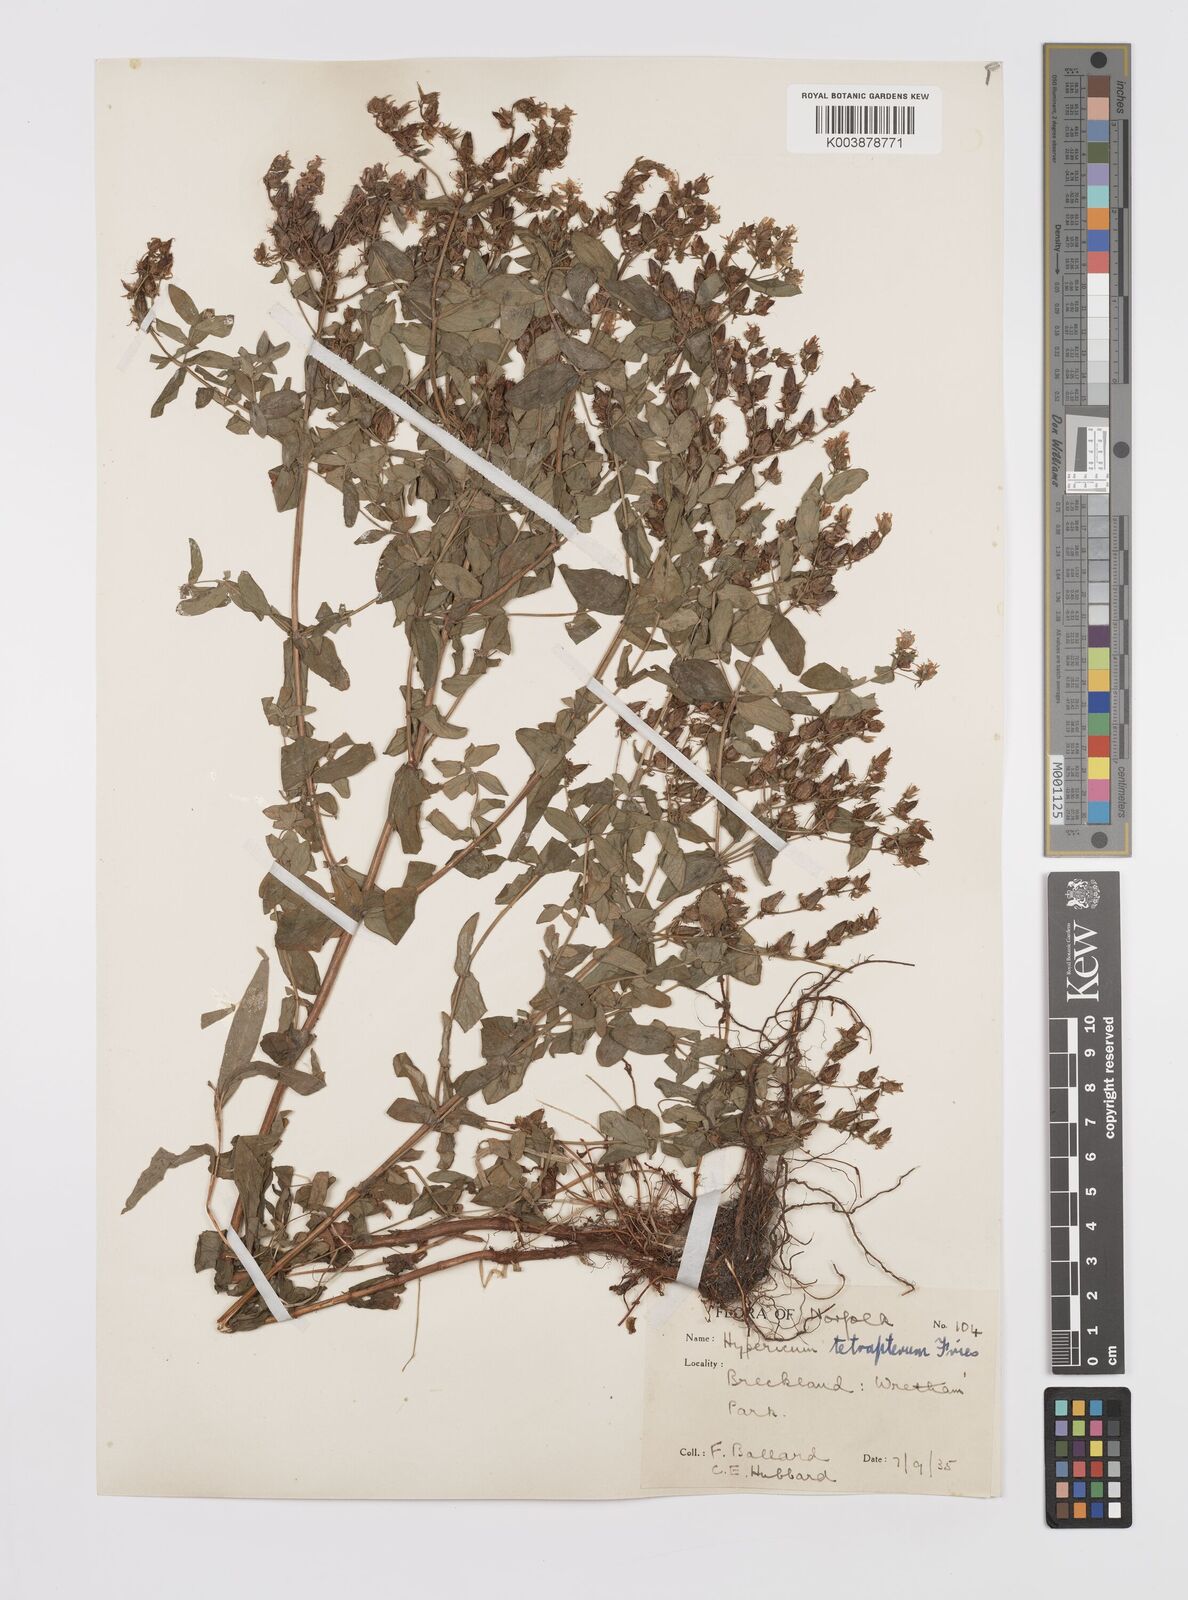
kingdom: Plantae
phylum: Tracheophyta
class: Magnoliopsida
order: Malpighiales
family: Hypericaceae
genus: Hypericum
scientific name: Hypericum tetrapterum
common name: Square-stalked st. john's-wort
